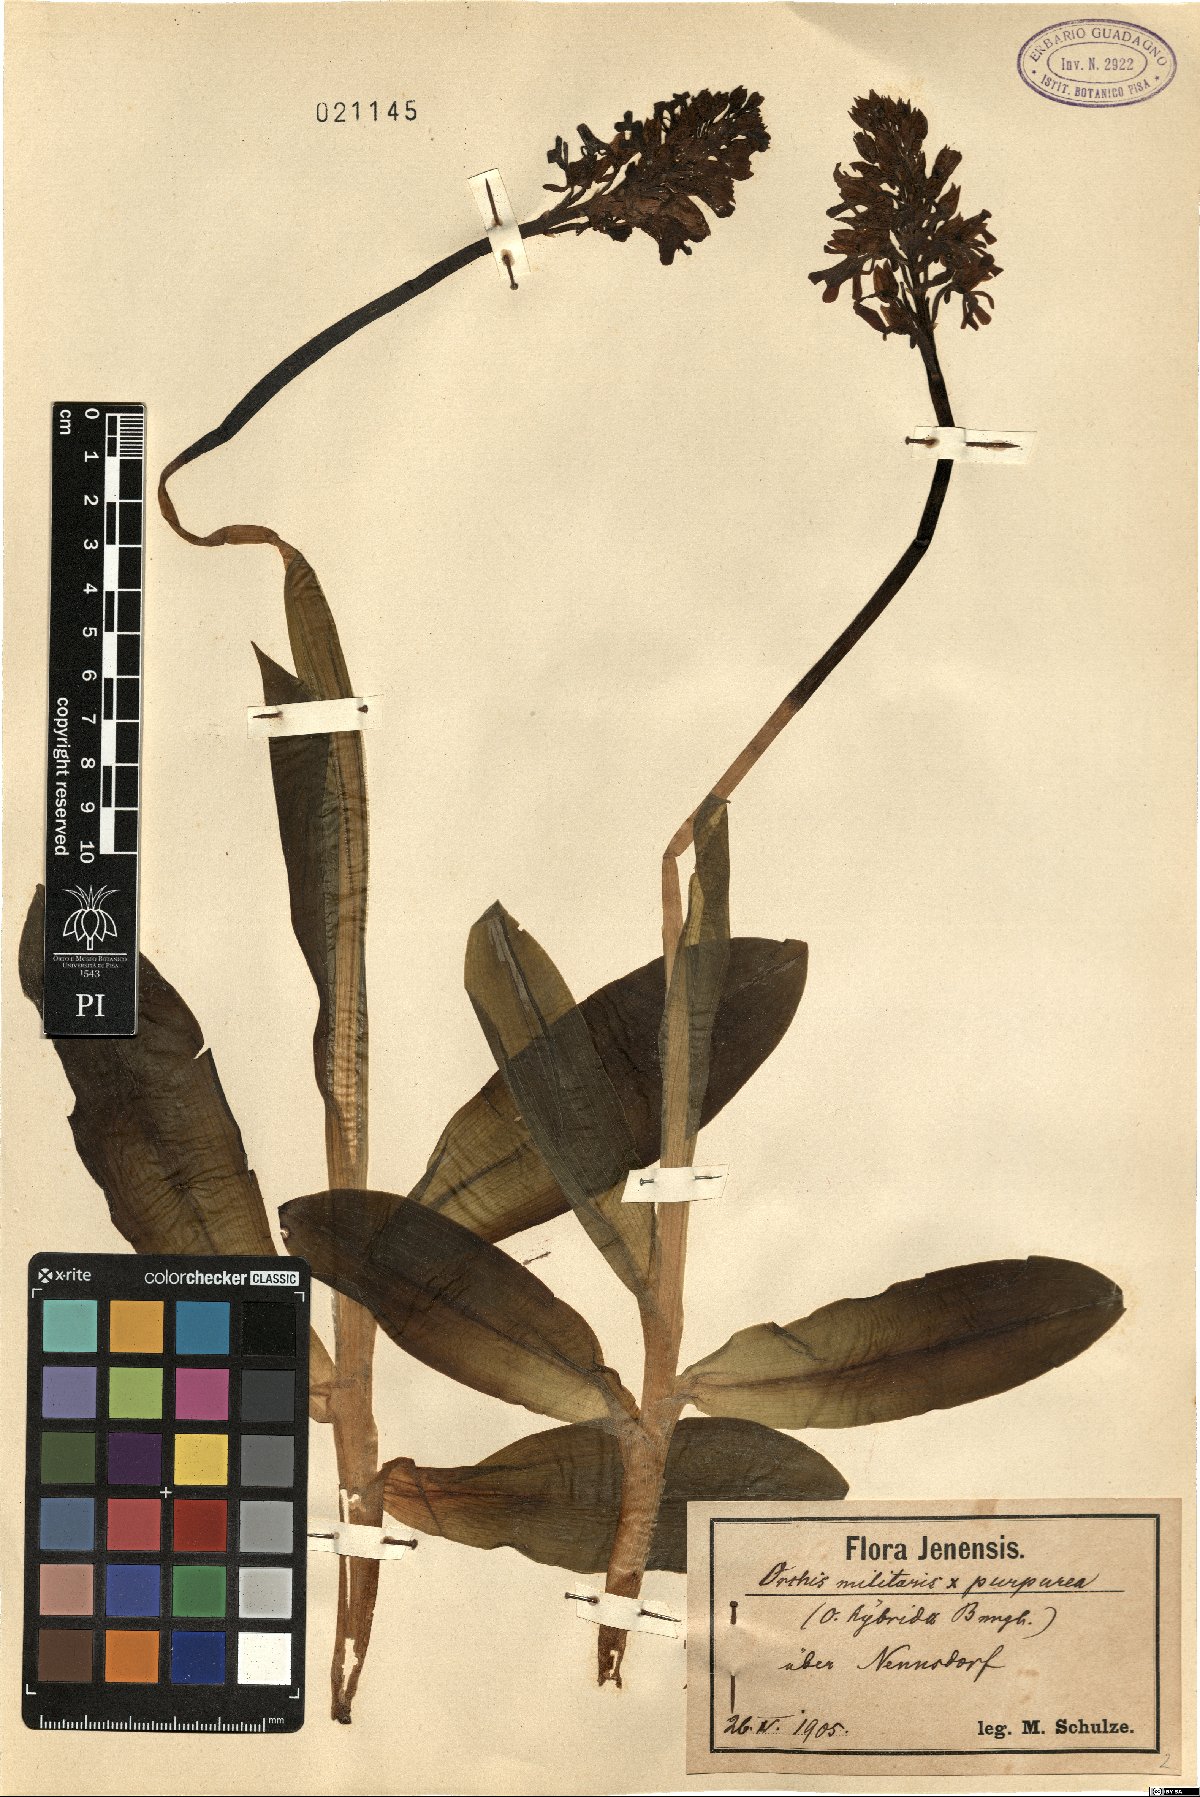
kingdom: Plantae
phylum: Tracheophyta
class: Liliopsida
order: Asparagales
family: Orchidaceae
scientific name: Orchidaceae
